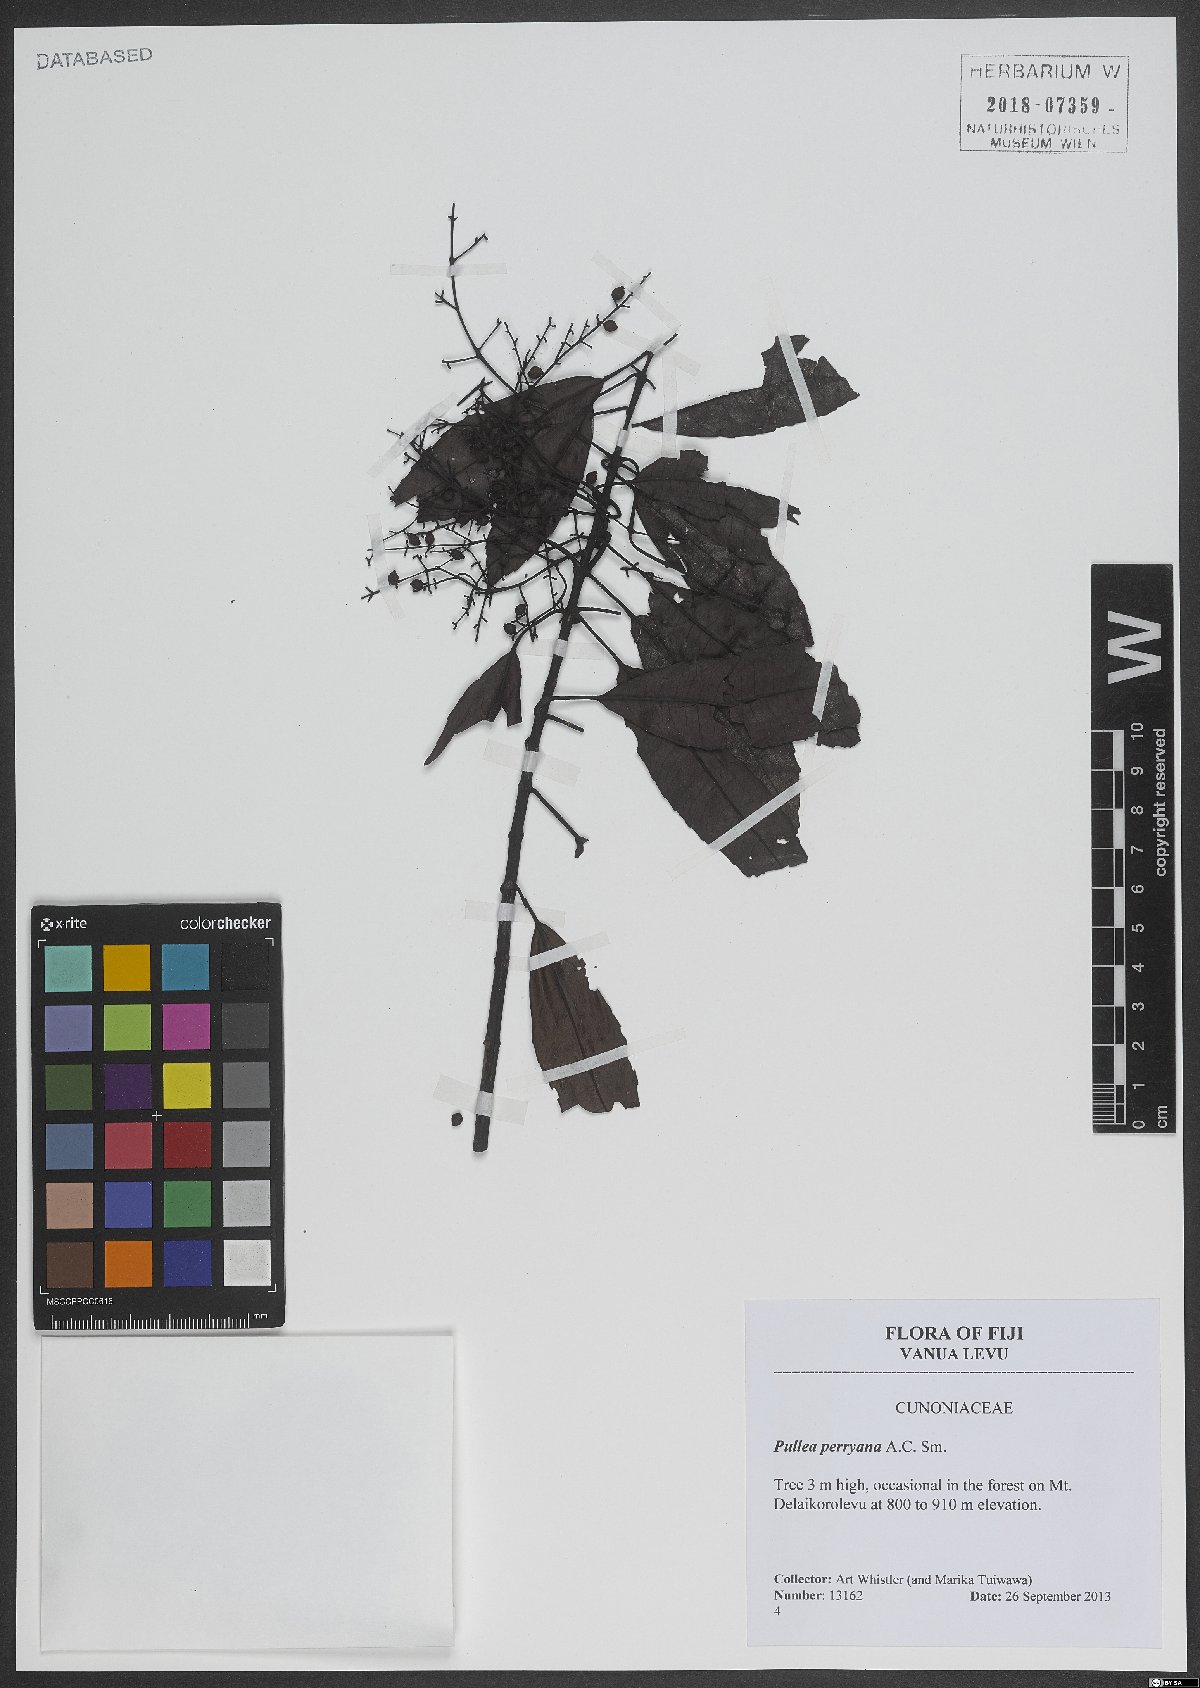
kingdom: Plantae
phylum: Tracheophyta
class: Magnoliopsida
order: Oxalidales
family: Cunoniaceae
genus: Pullea
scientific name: Pullea glabra
